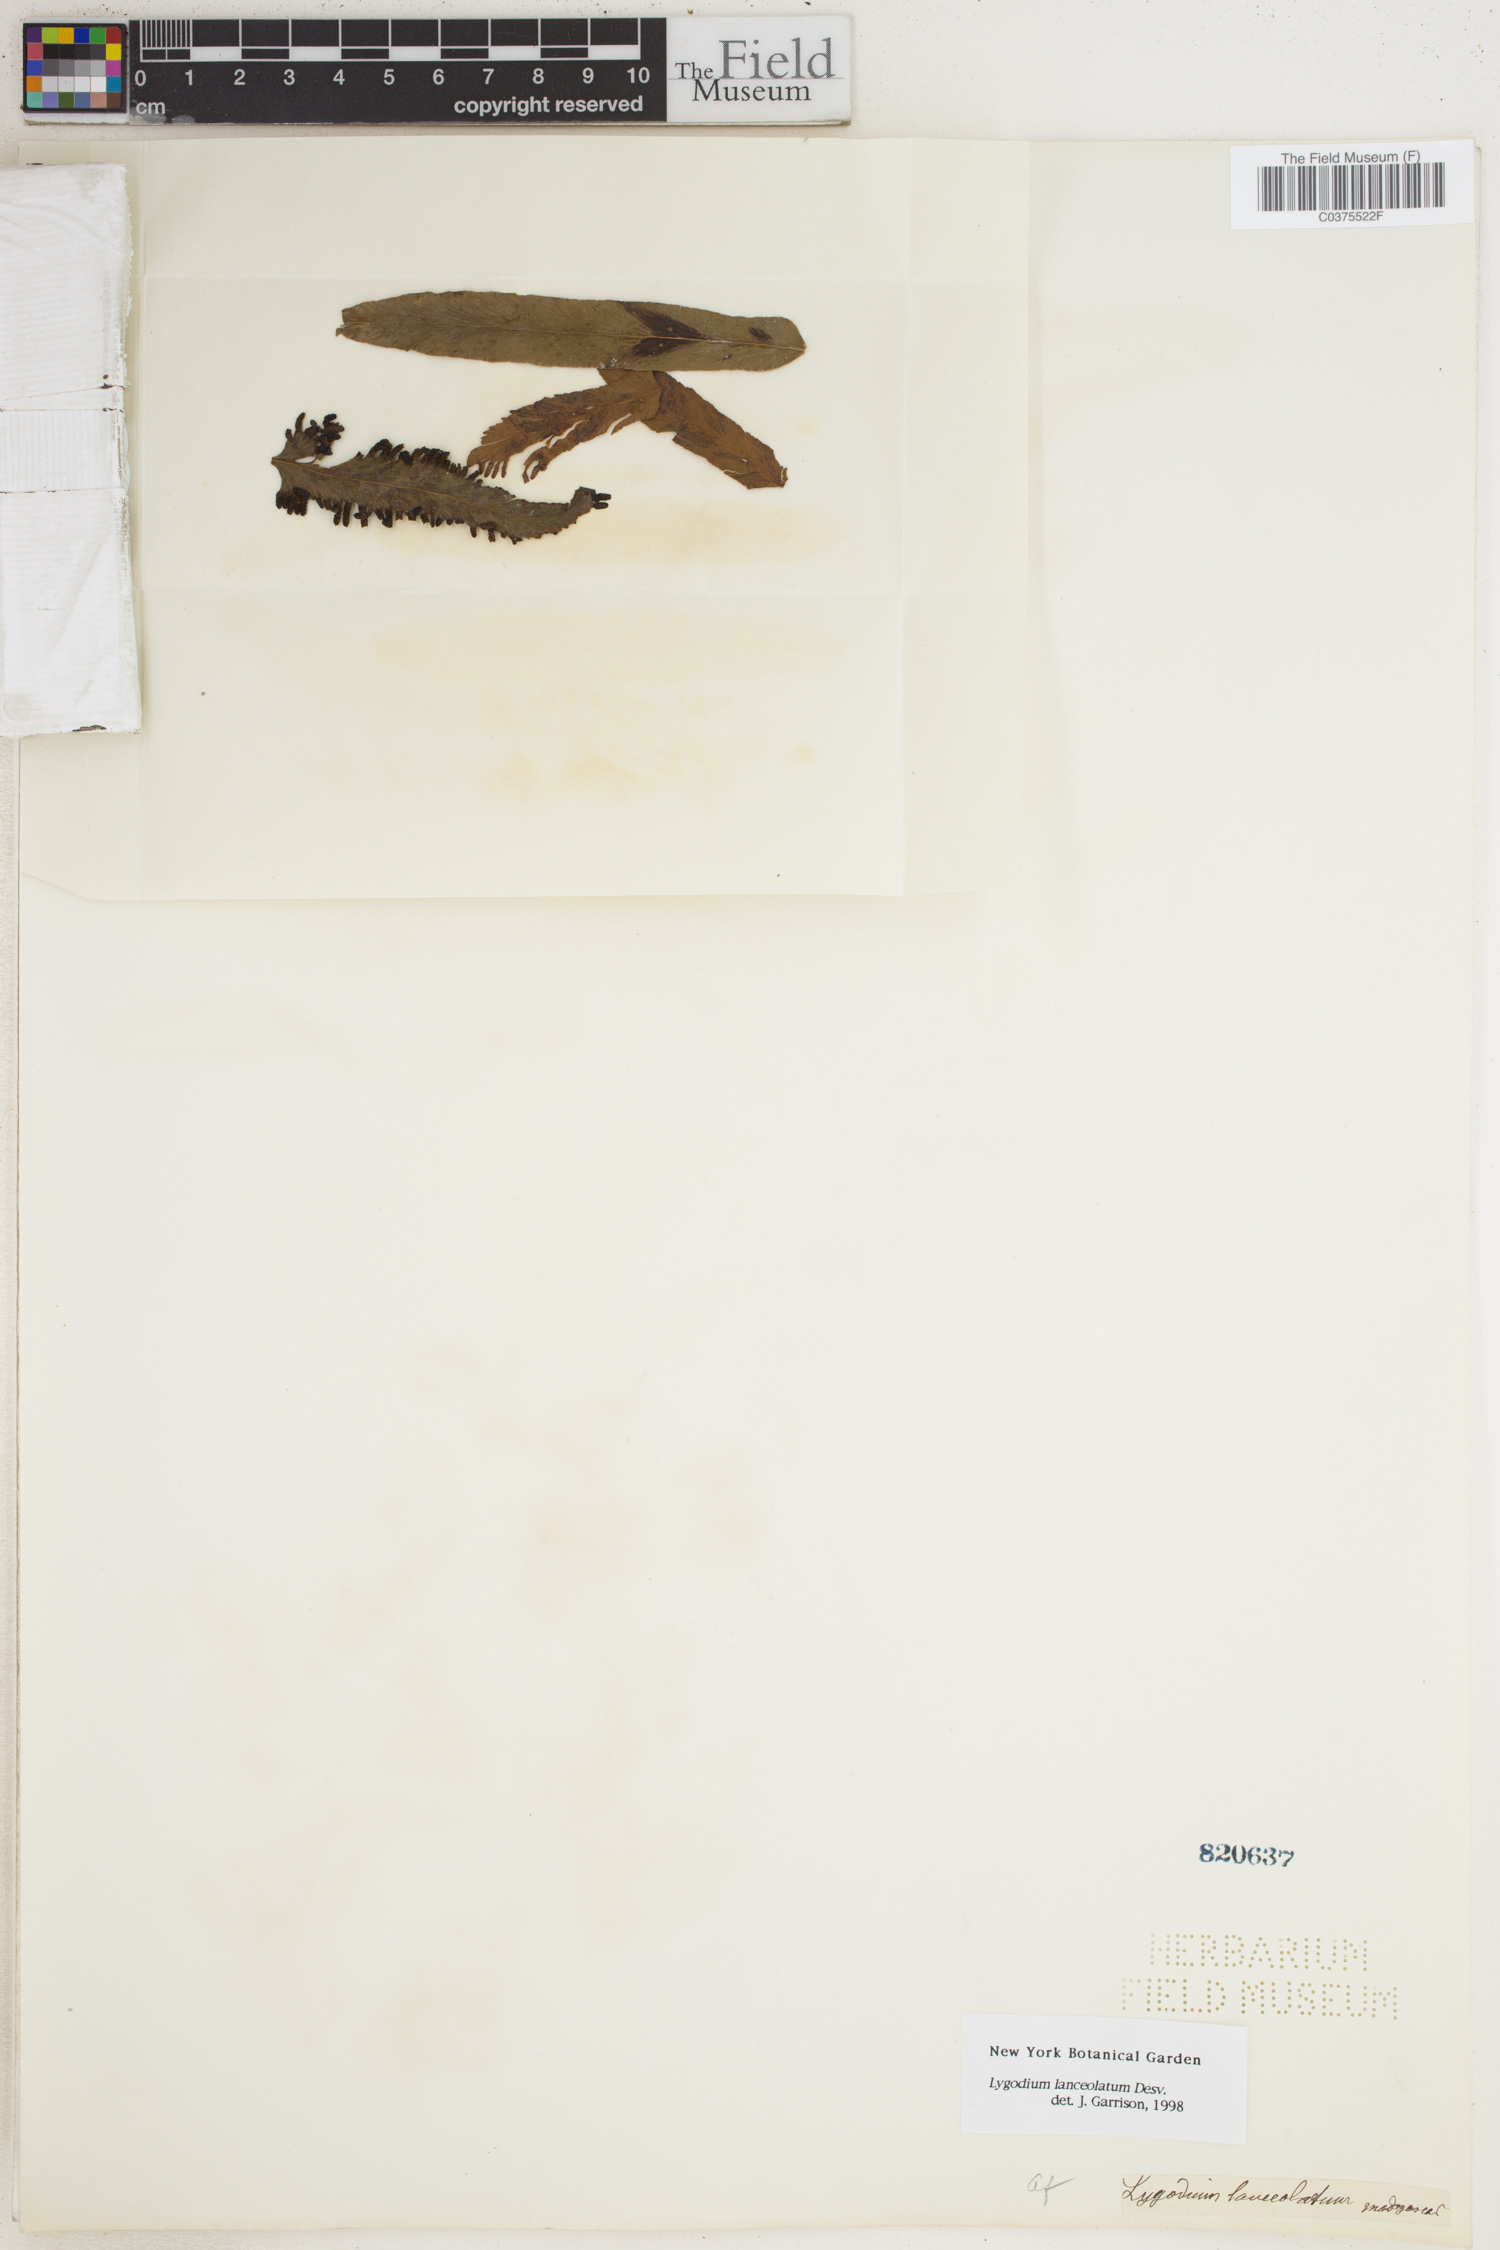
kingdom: Plantae
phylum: Tracheophyta
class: Polypodiopsida
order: Schizaeales
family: Lygodiaceae
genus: Lygodium
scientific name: Lygodium lanceolatum
